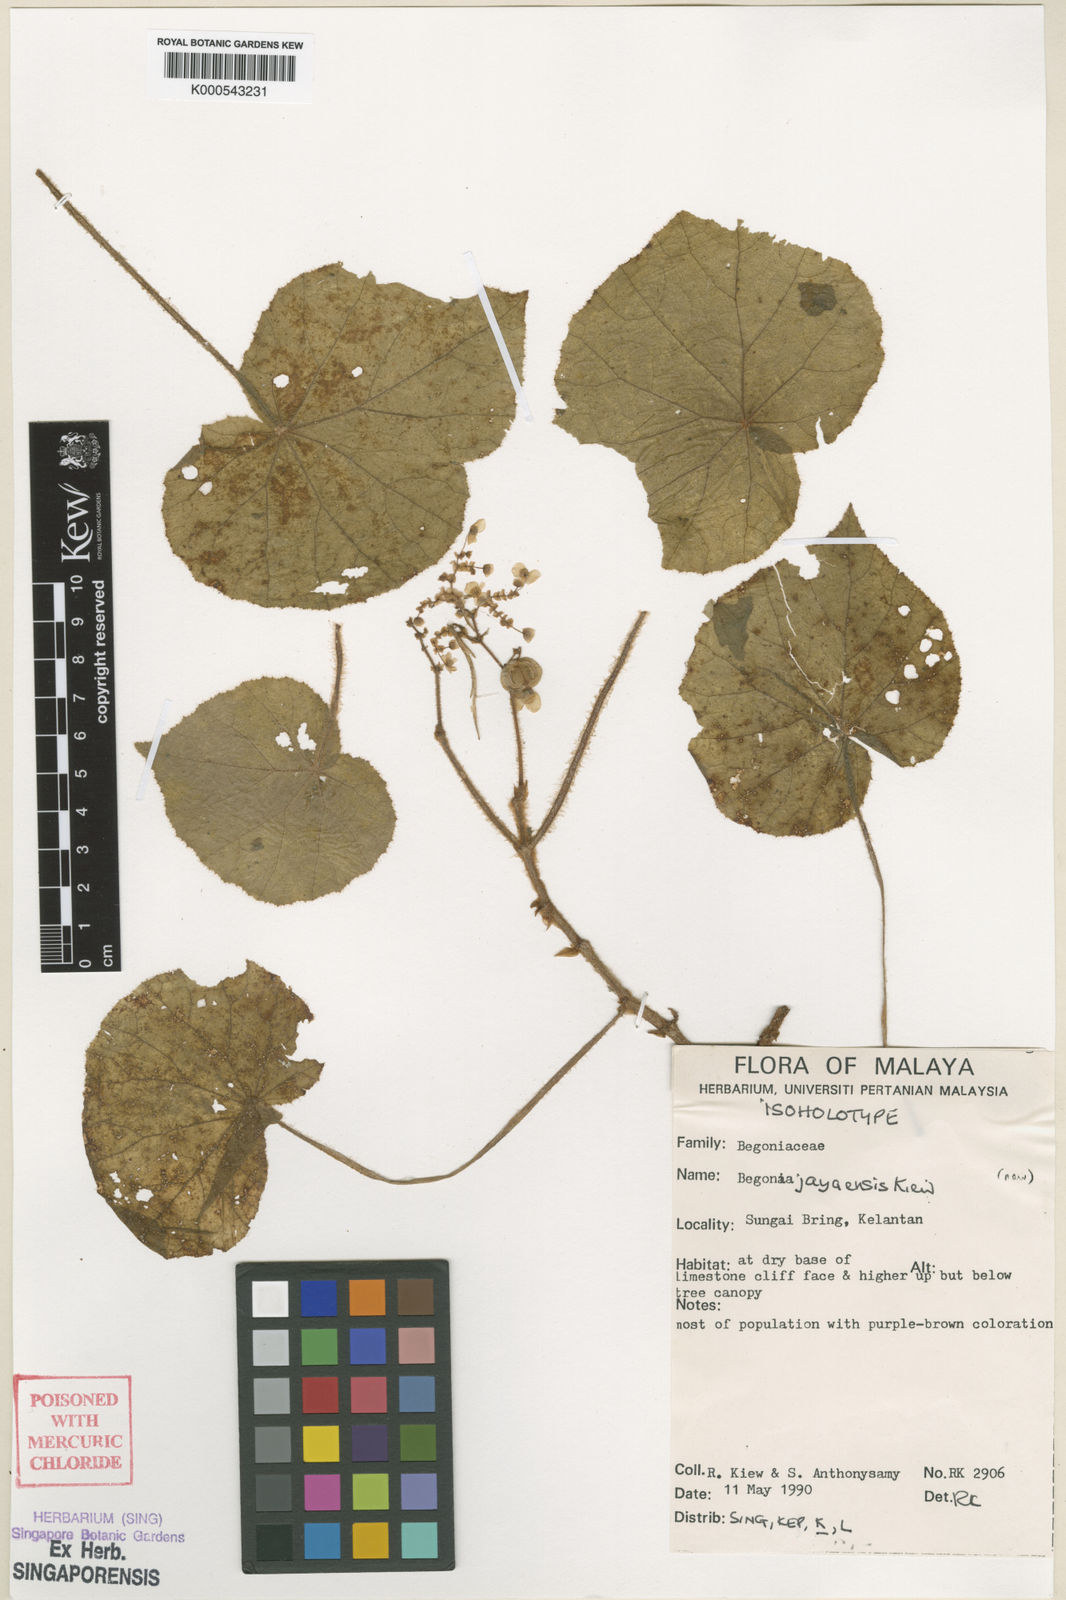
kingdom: Plantae
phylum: Tracheophyta
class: Magnoliopsida
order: Cucurbitales
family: Begoniaceae
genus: Begonia
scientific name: Begonia jayaensis
